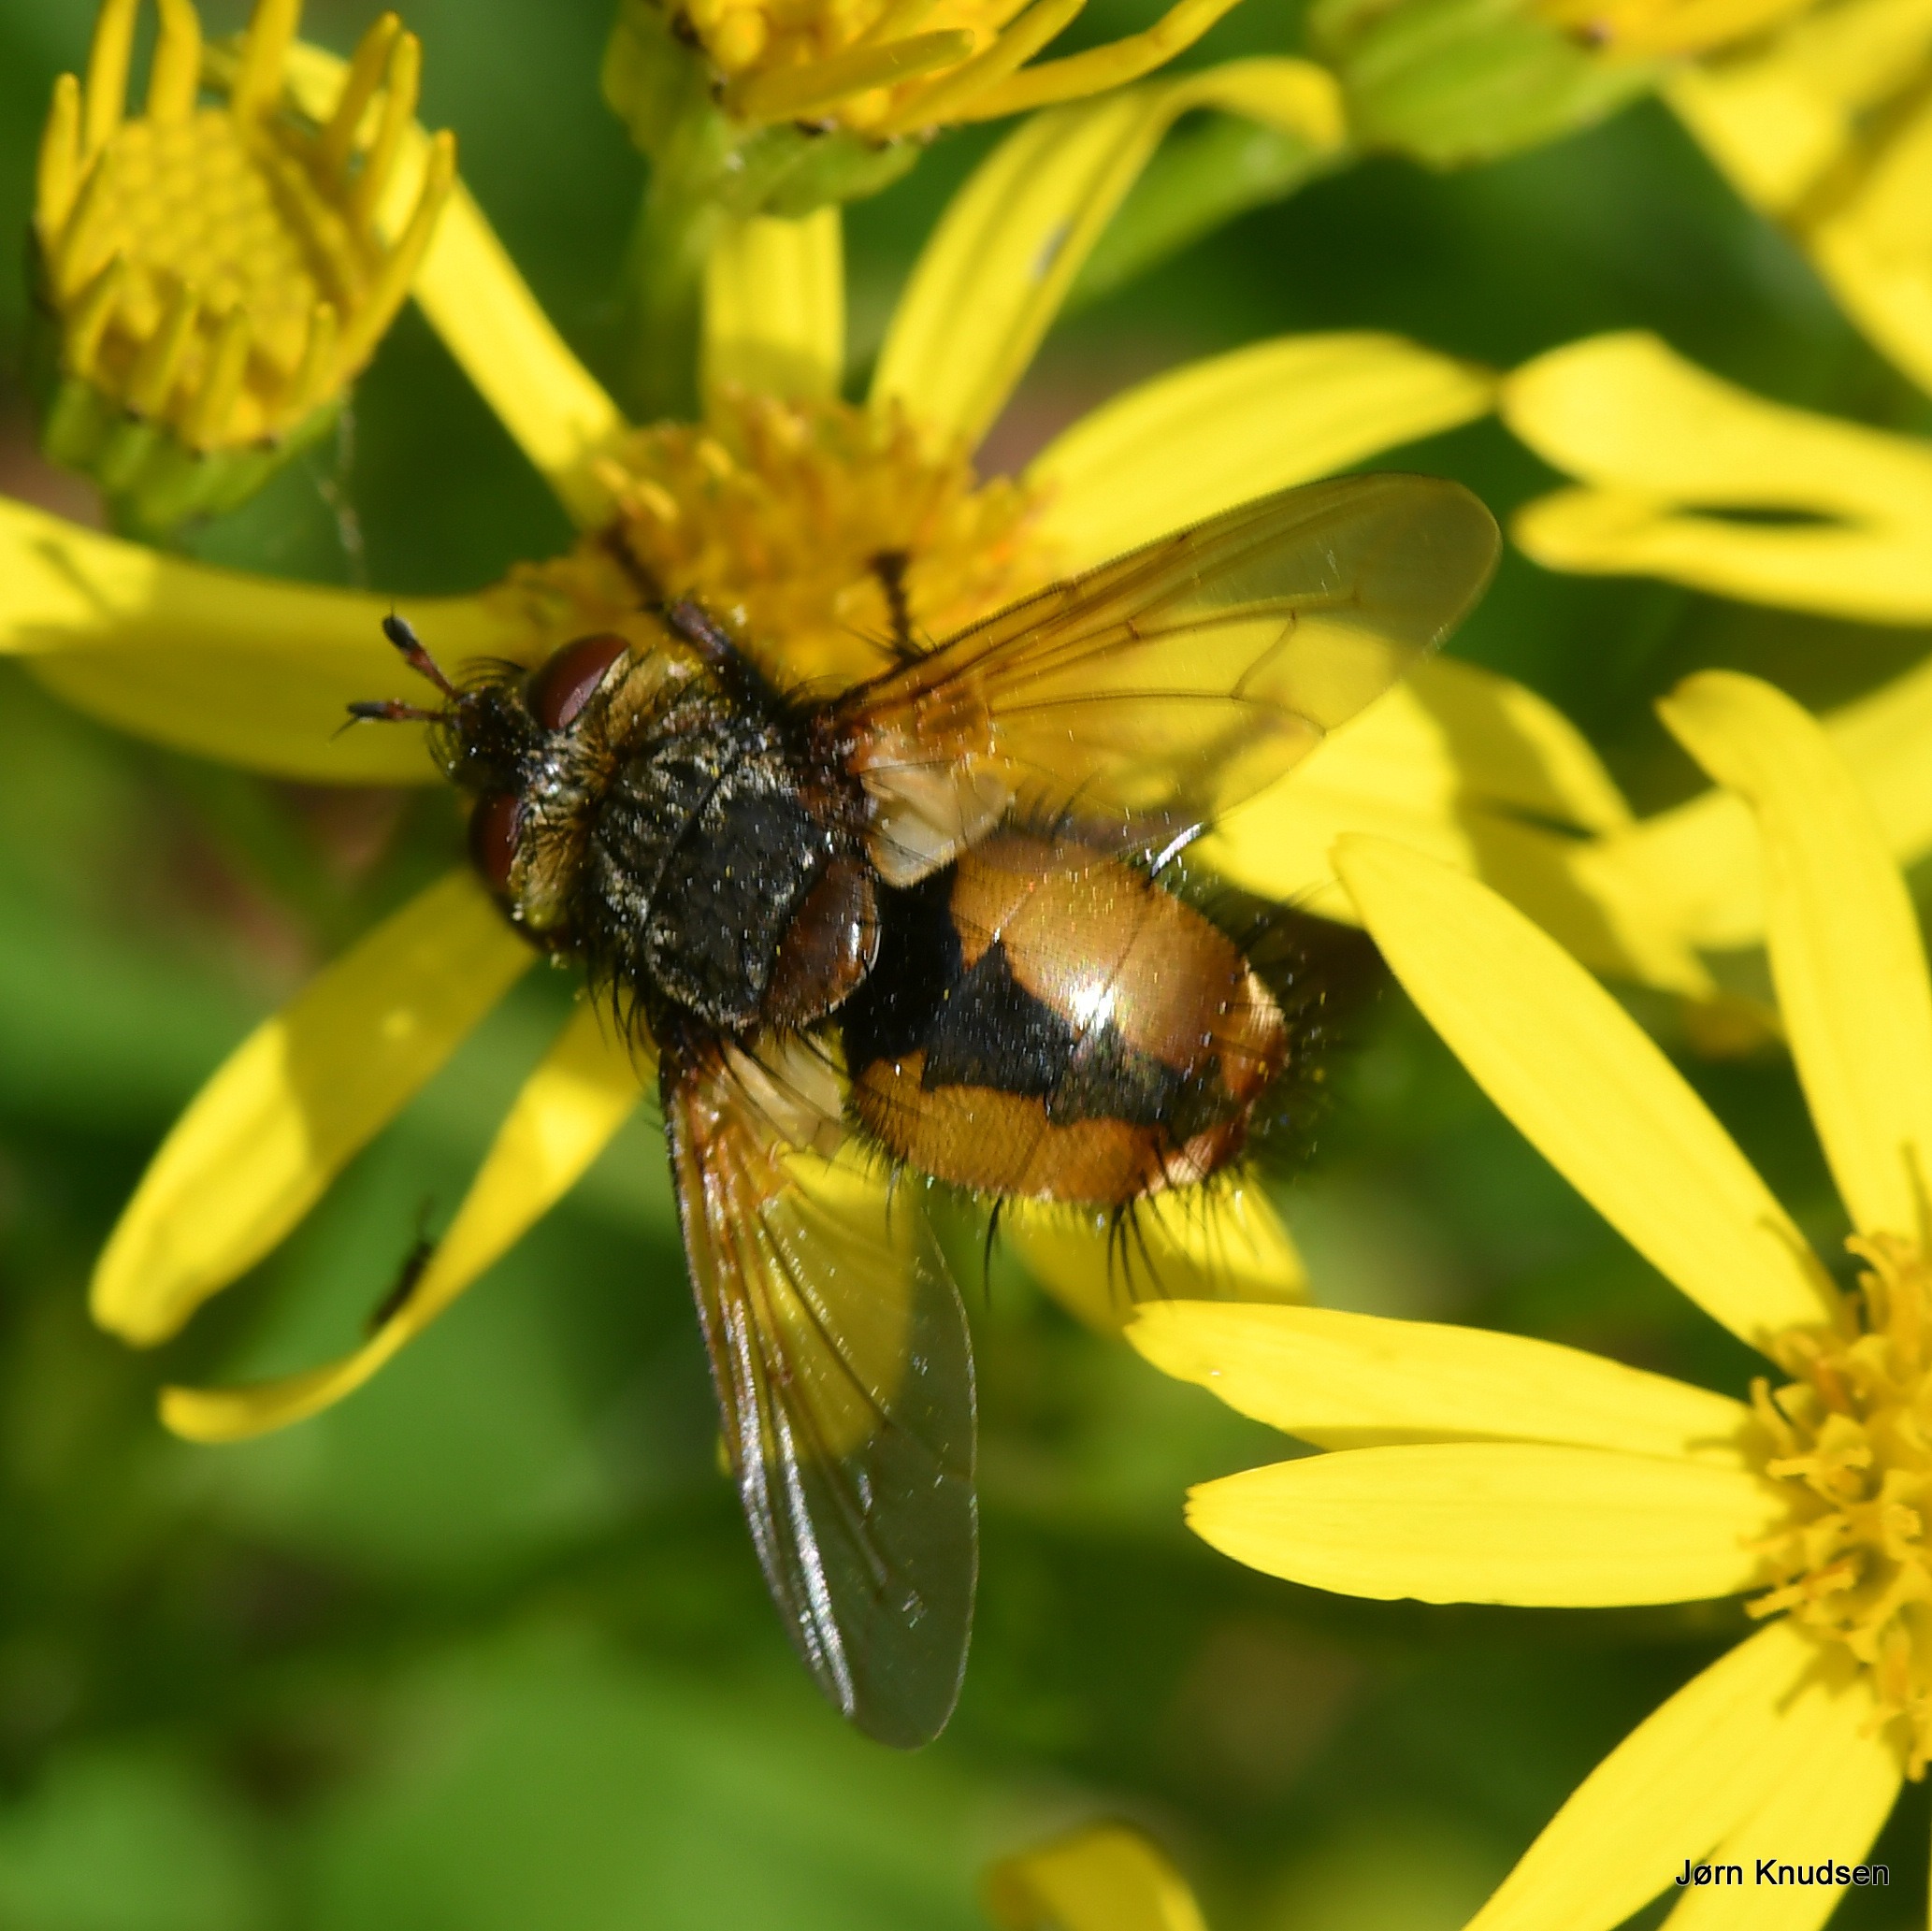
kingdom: Animalia
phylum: Arthropoda
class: Insecta
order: Diptera
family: Tachinidae
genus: Tachina
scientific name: Tachina fera
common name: Mellemfluen oskar
